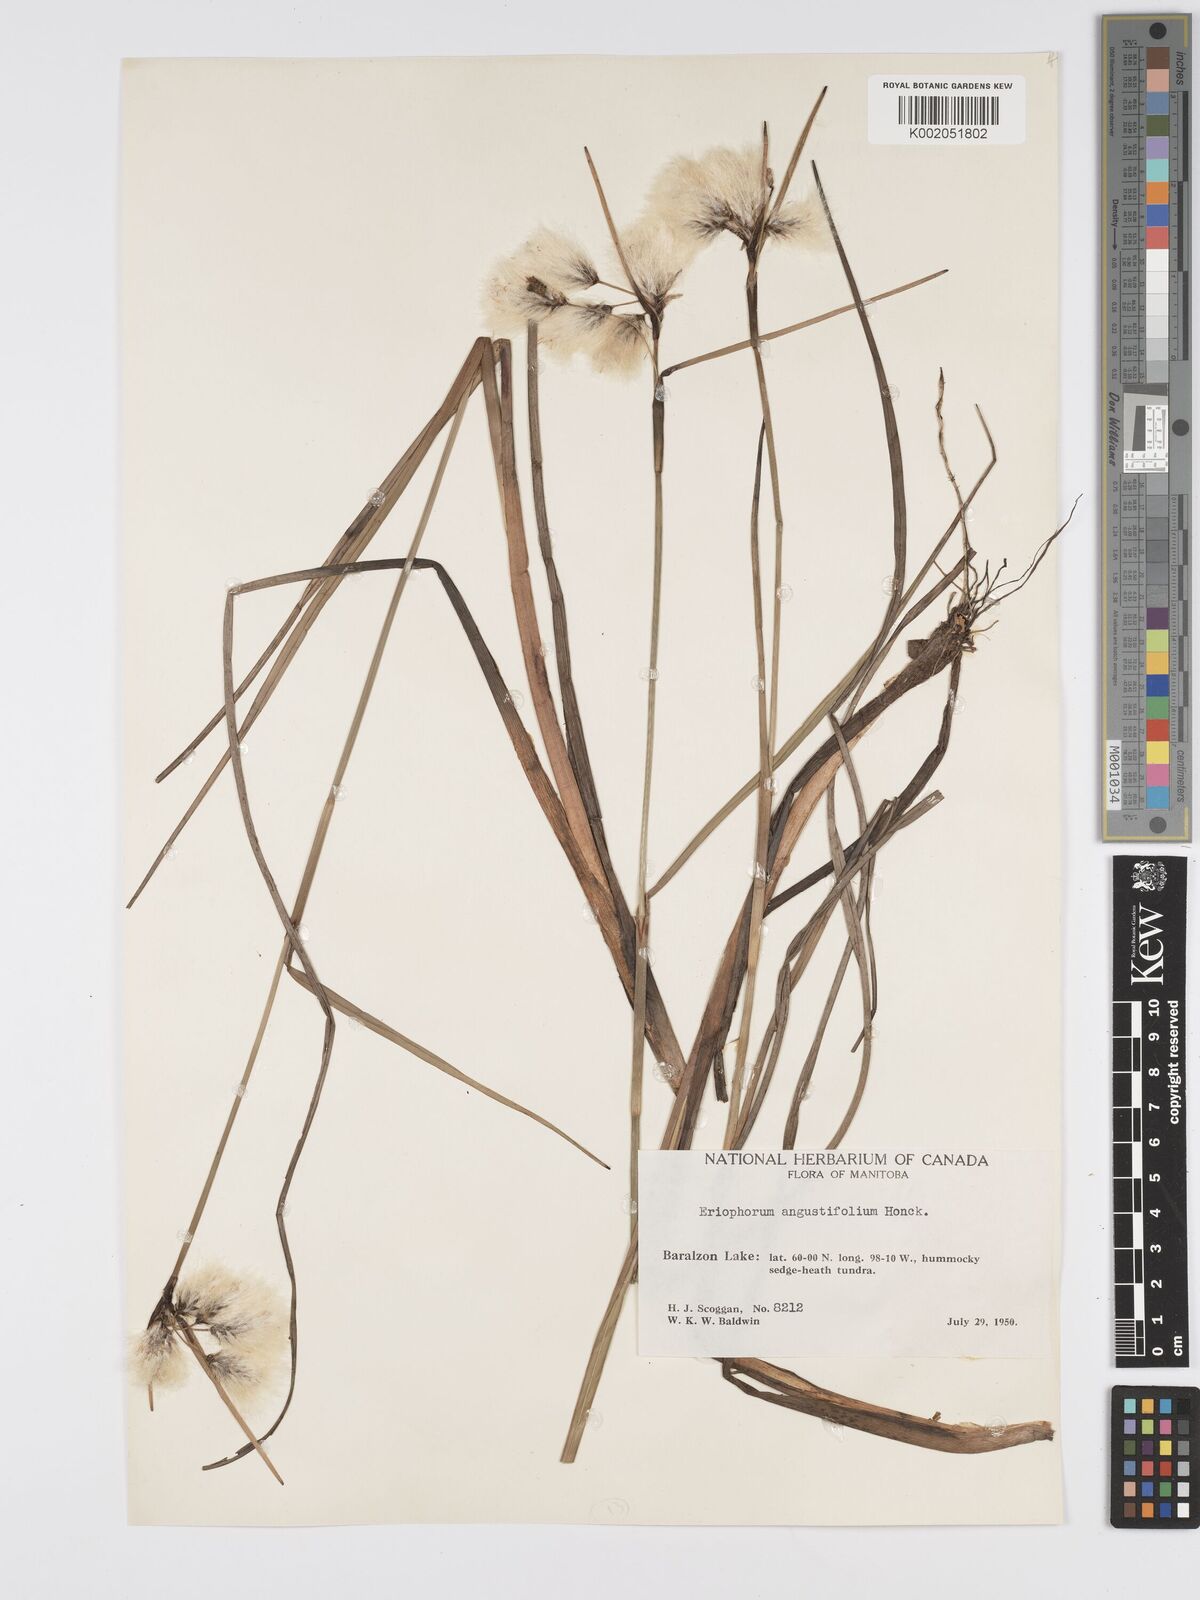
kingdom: Plantae
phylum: Tracheophyta
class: Liliopsida
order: Poales
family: Cyperaceae
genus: Eriophorum
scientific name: Eriophorum angustifolium
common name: Common cottongrass
